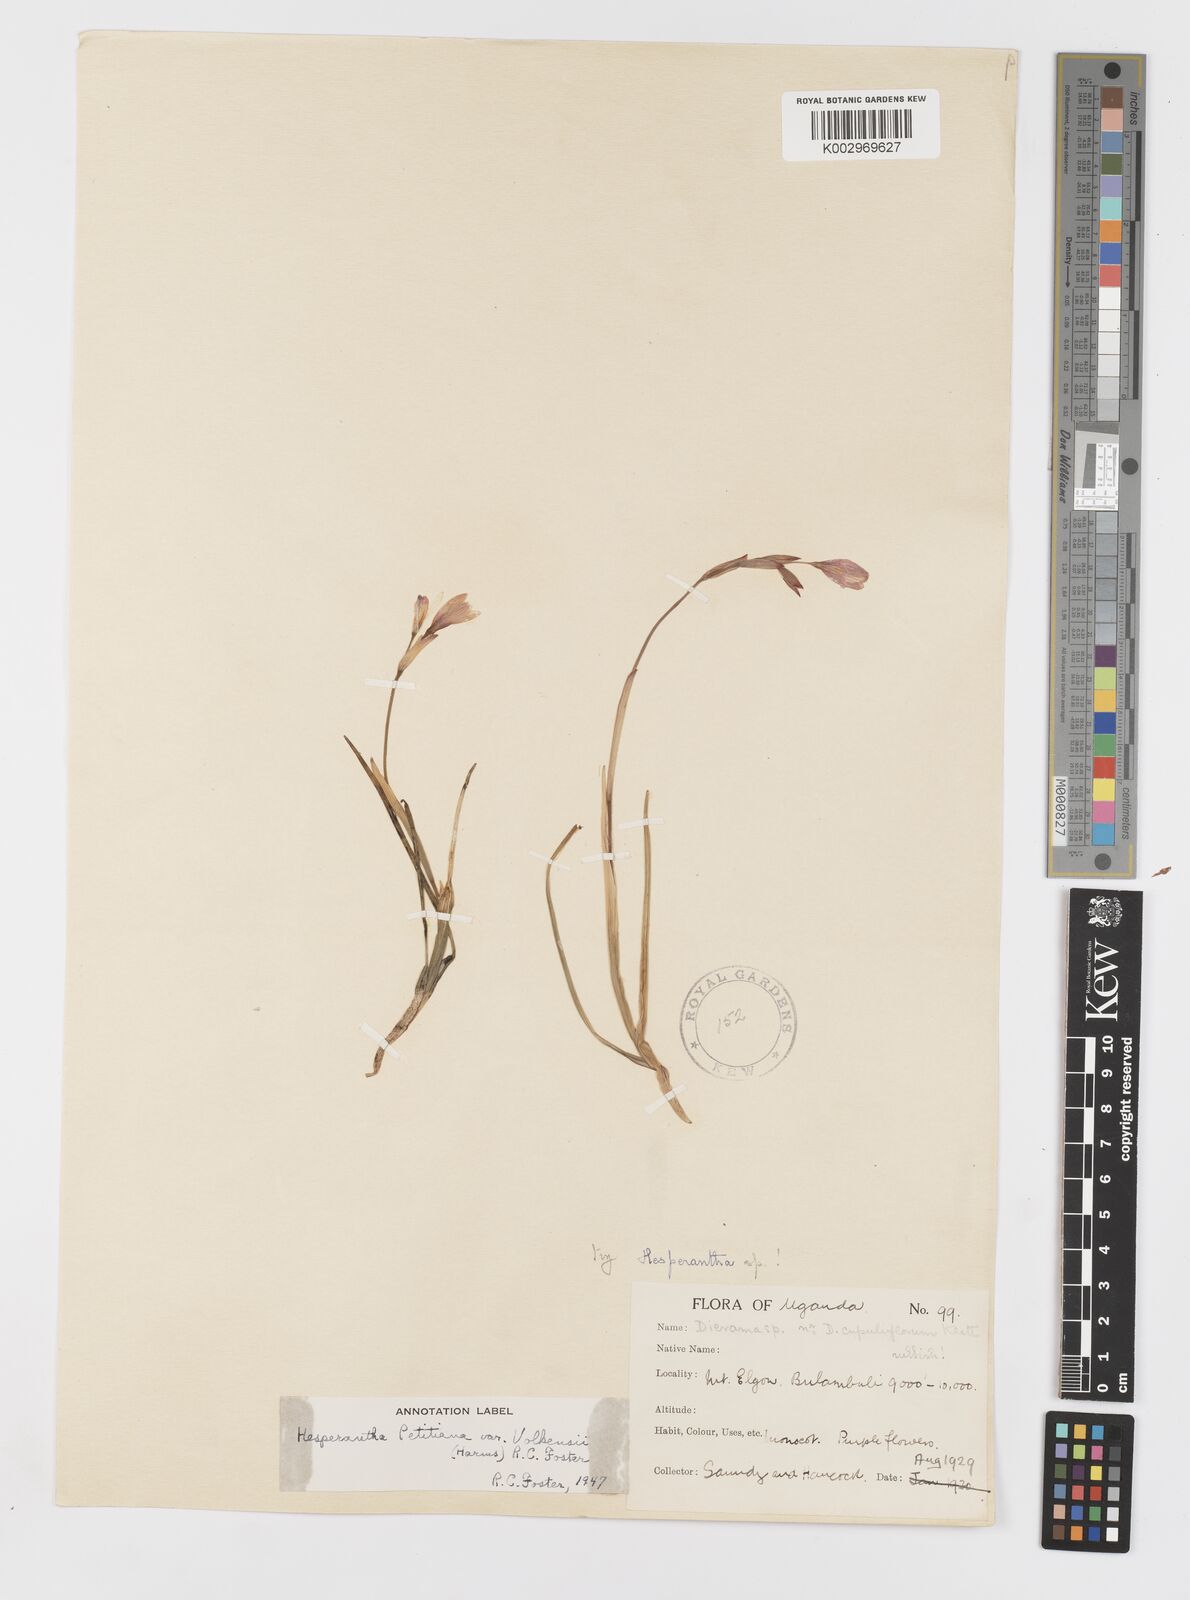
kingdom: Plantae
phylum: Tracheophyta
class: Liliopsida
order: Asparagales
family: Iridaceae
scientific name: Iridaceae
